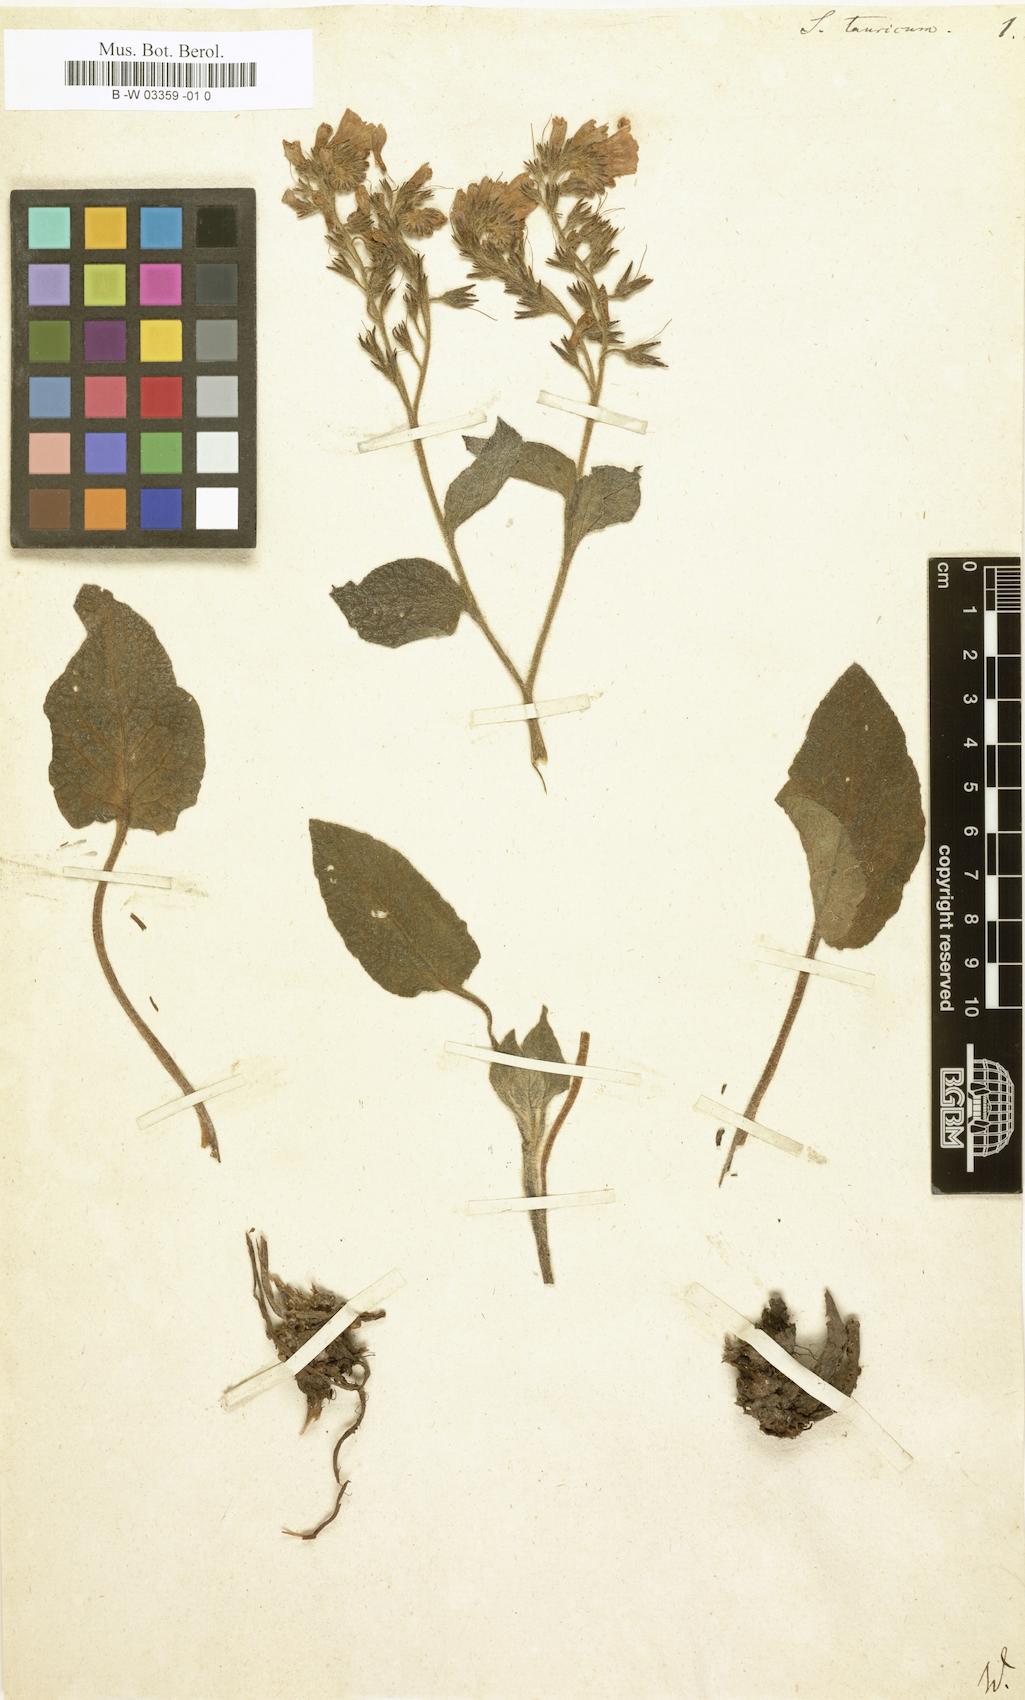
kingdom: Plantae
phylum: Tracheophyta
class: Magnoliopsida
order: Boraginales
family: Boraginaceae
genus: Symphytum
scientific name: Symphytum tauricum
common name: Crimean comfrey
